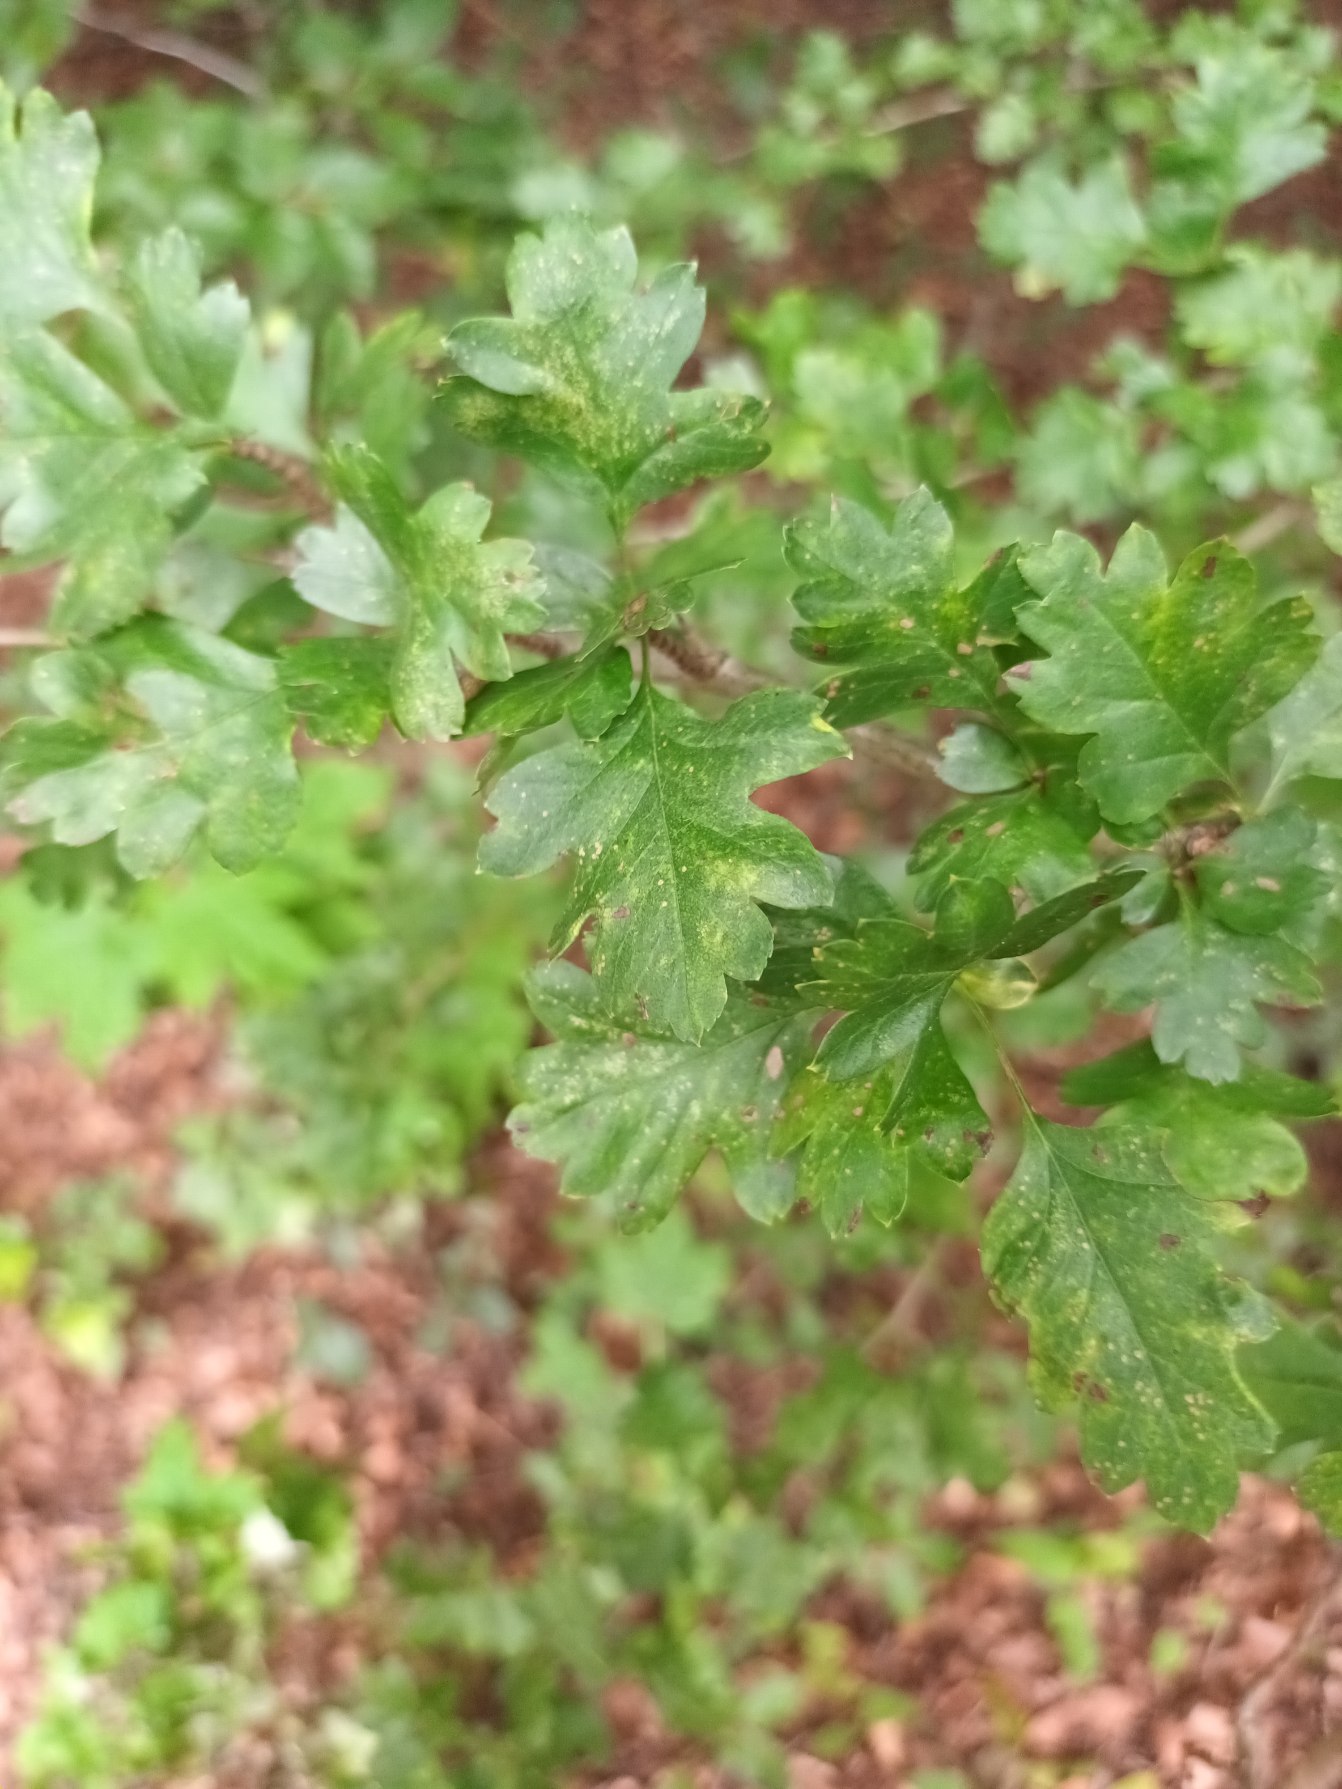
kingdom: Plantae
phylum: Tracheophyta
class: Magnoliopsida
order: Rosales
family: Rosaceae
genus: Crataegus
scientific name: Crataegus monogyna
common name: Engriflet hvidtjørn
